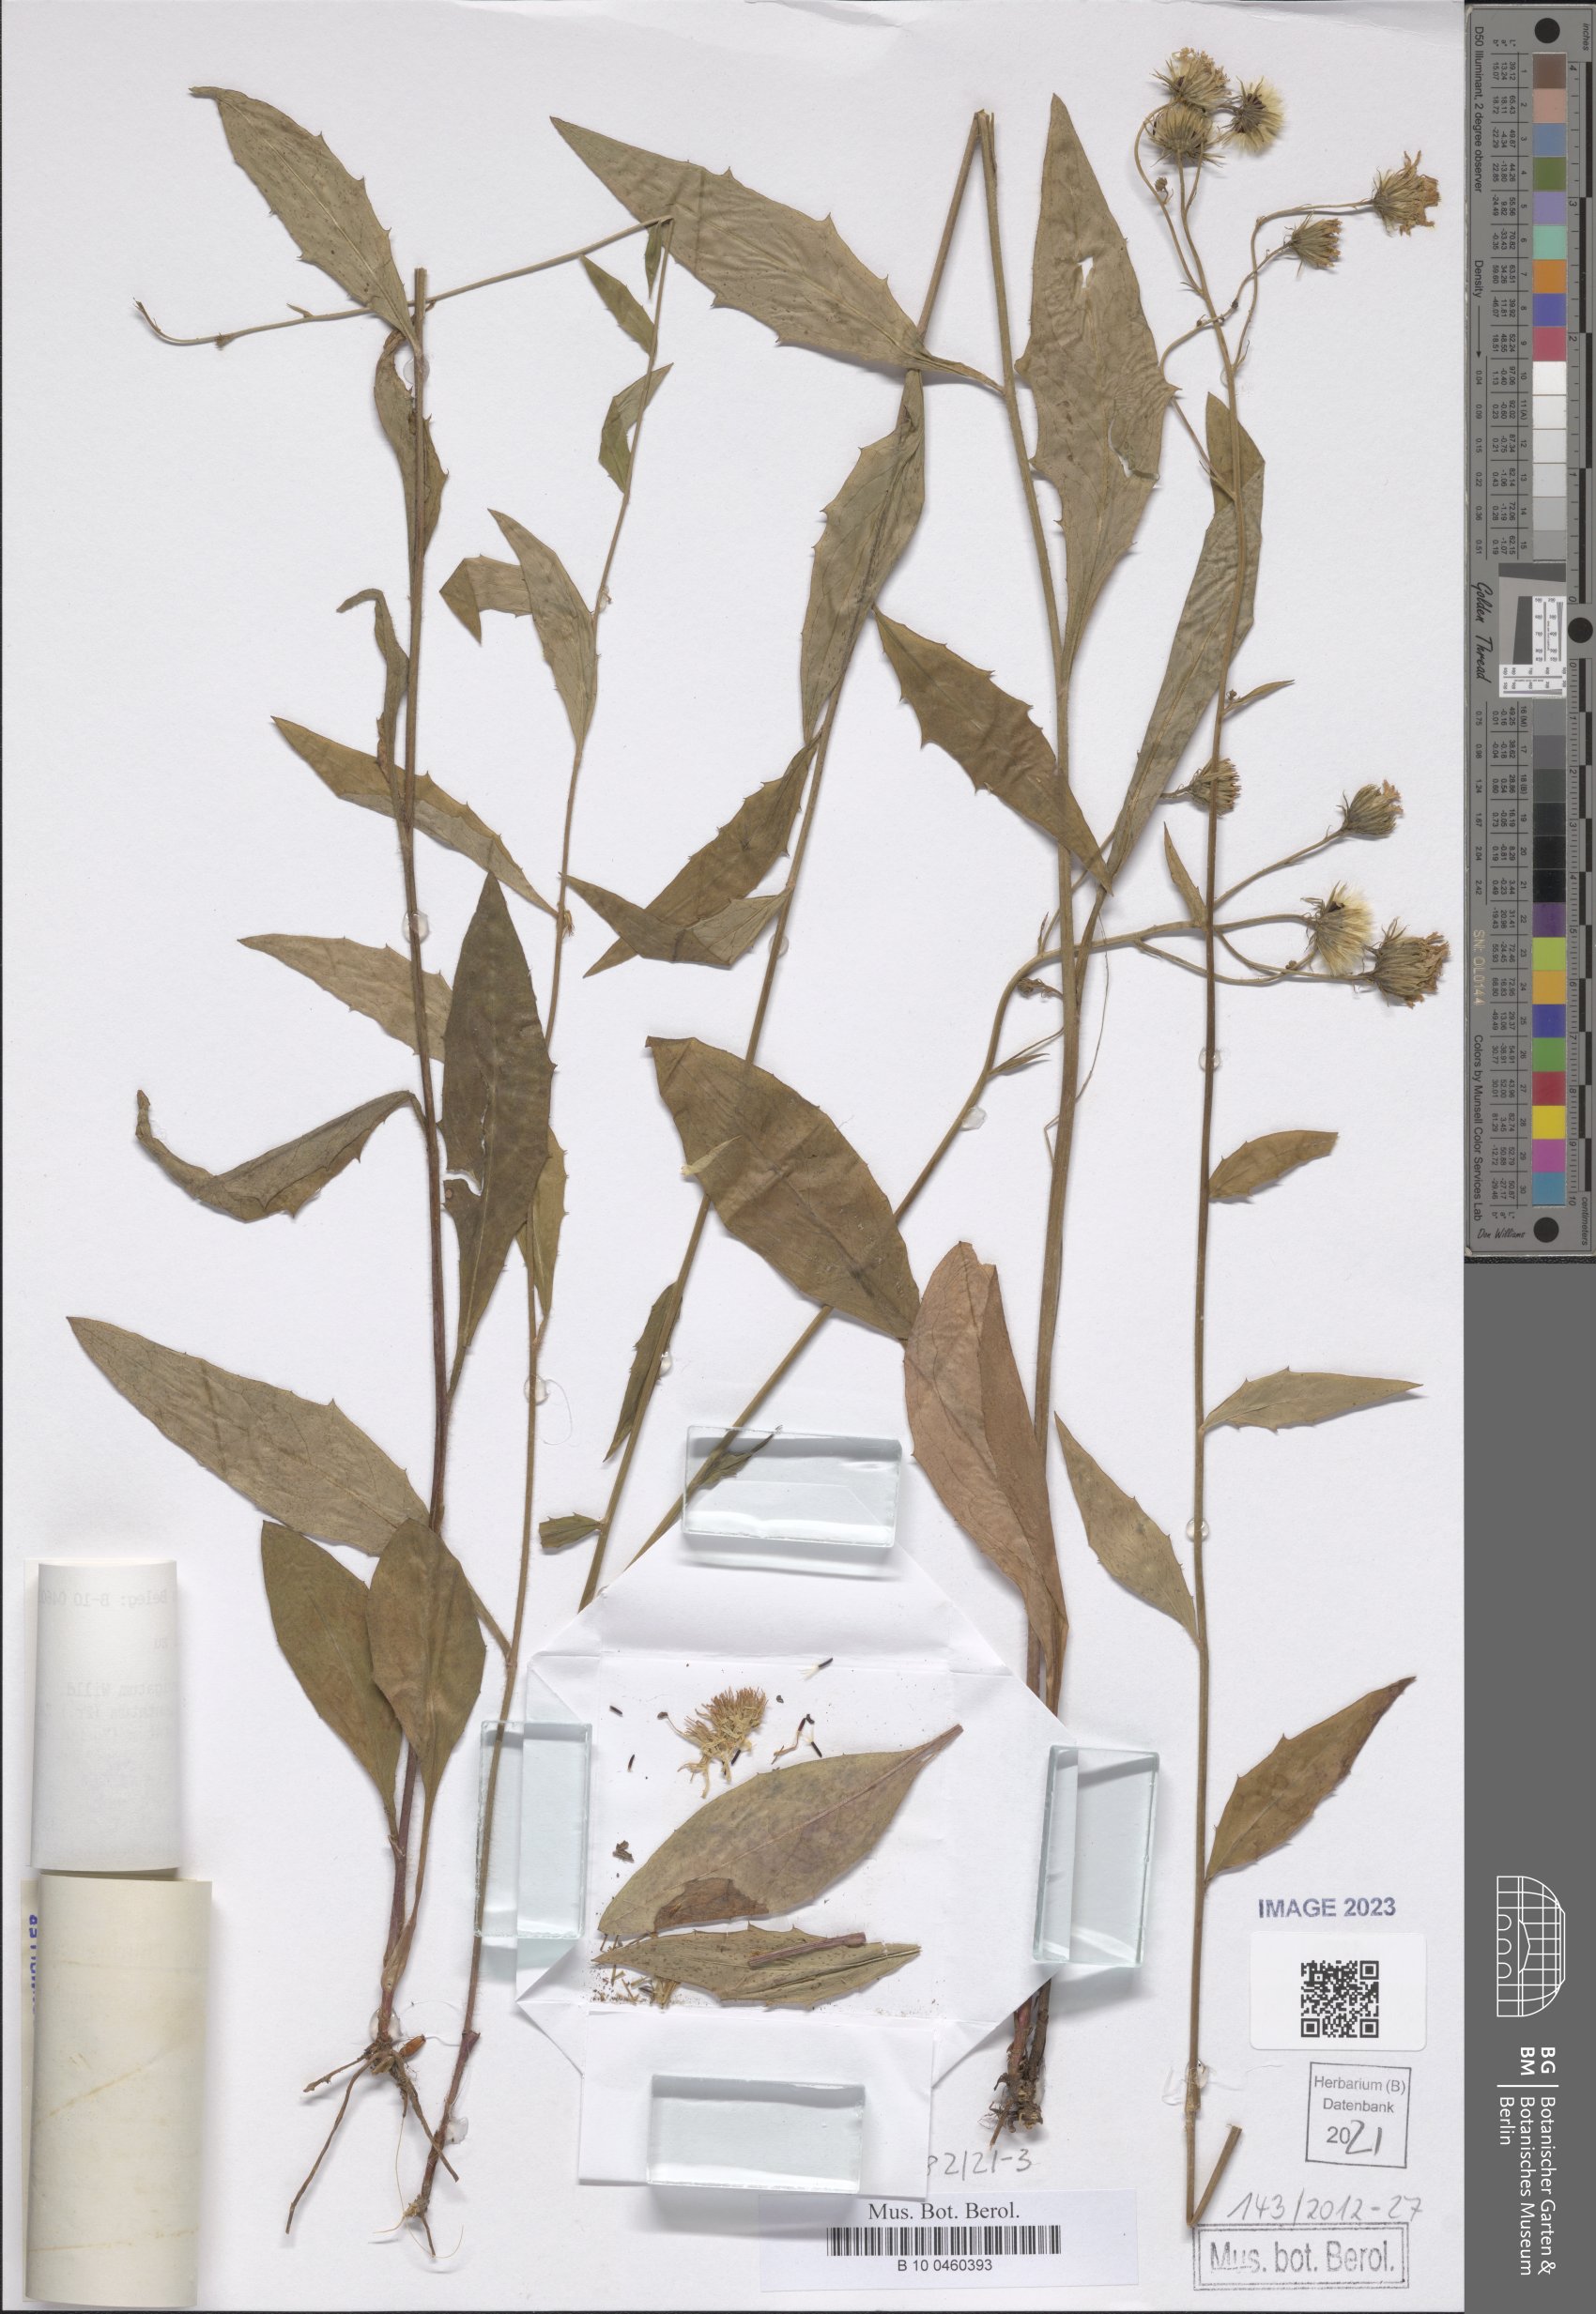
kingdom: Plantae
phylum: Tracheophyta
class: Magnoliopsida
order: Asterales
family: Asteraceae
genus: Hieracium
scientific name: Hieracium tridentatum
